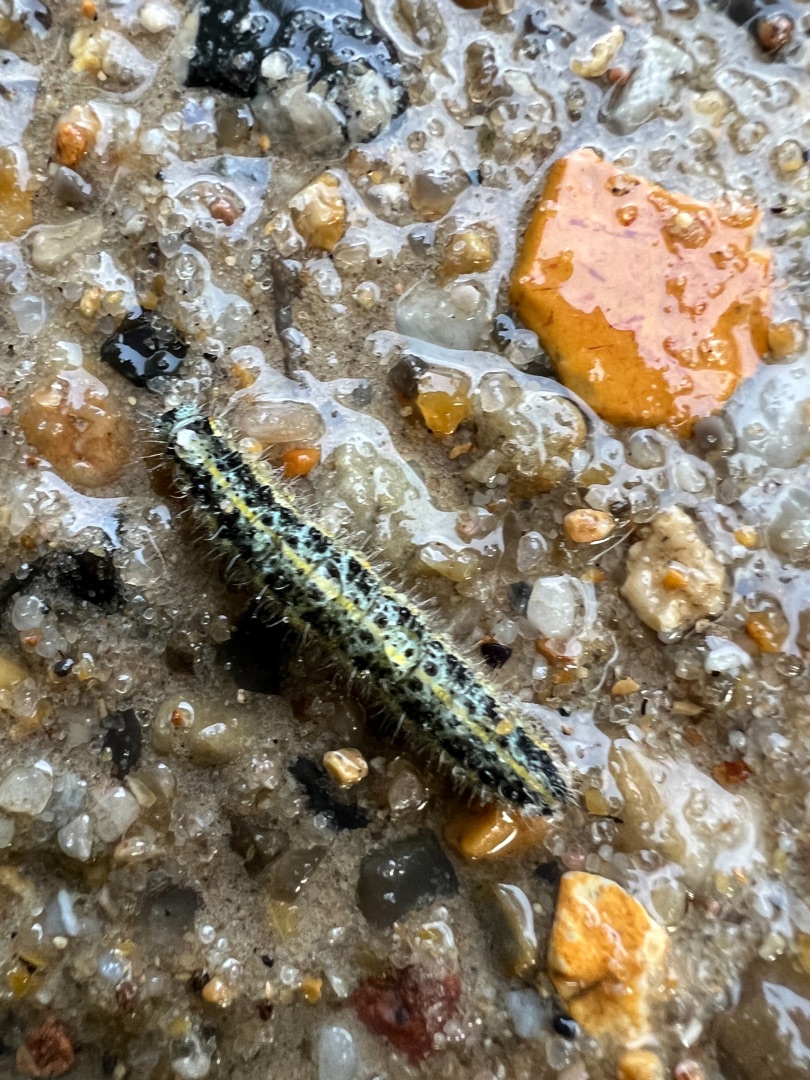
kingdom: Animalia
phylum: Arthropoda
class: Insecta
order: Lepidoptera
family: Pieridae
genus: Pieris
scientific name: Pieris brassicae
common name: Stor kålsommerfugl
